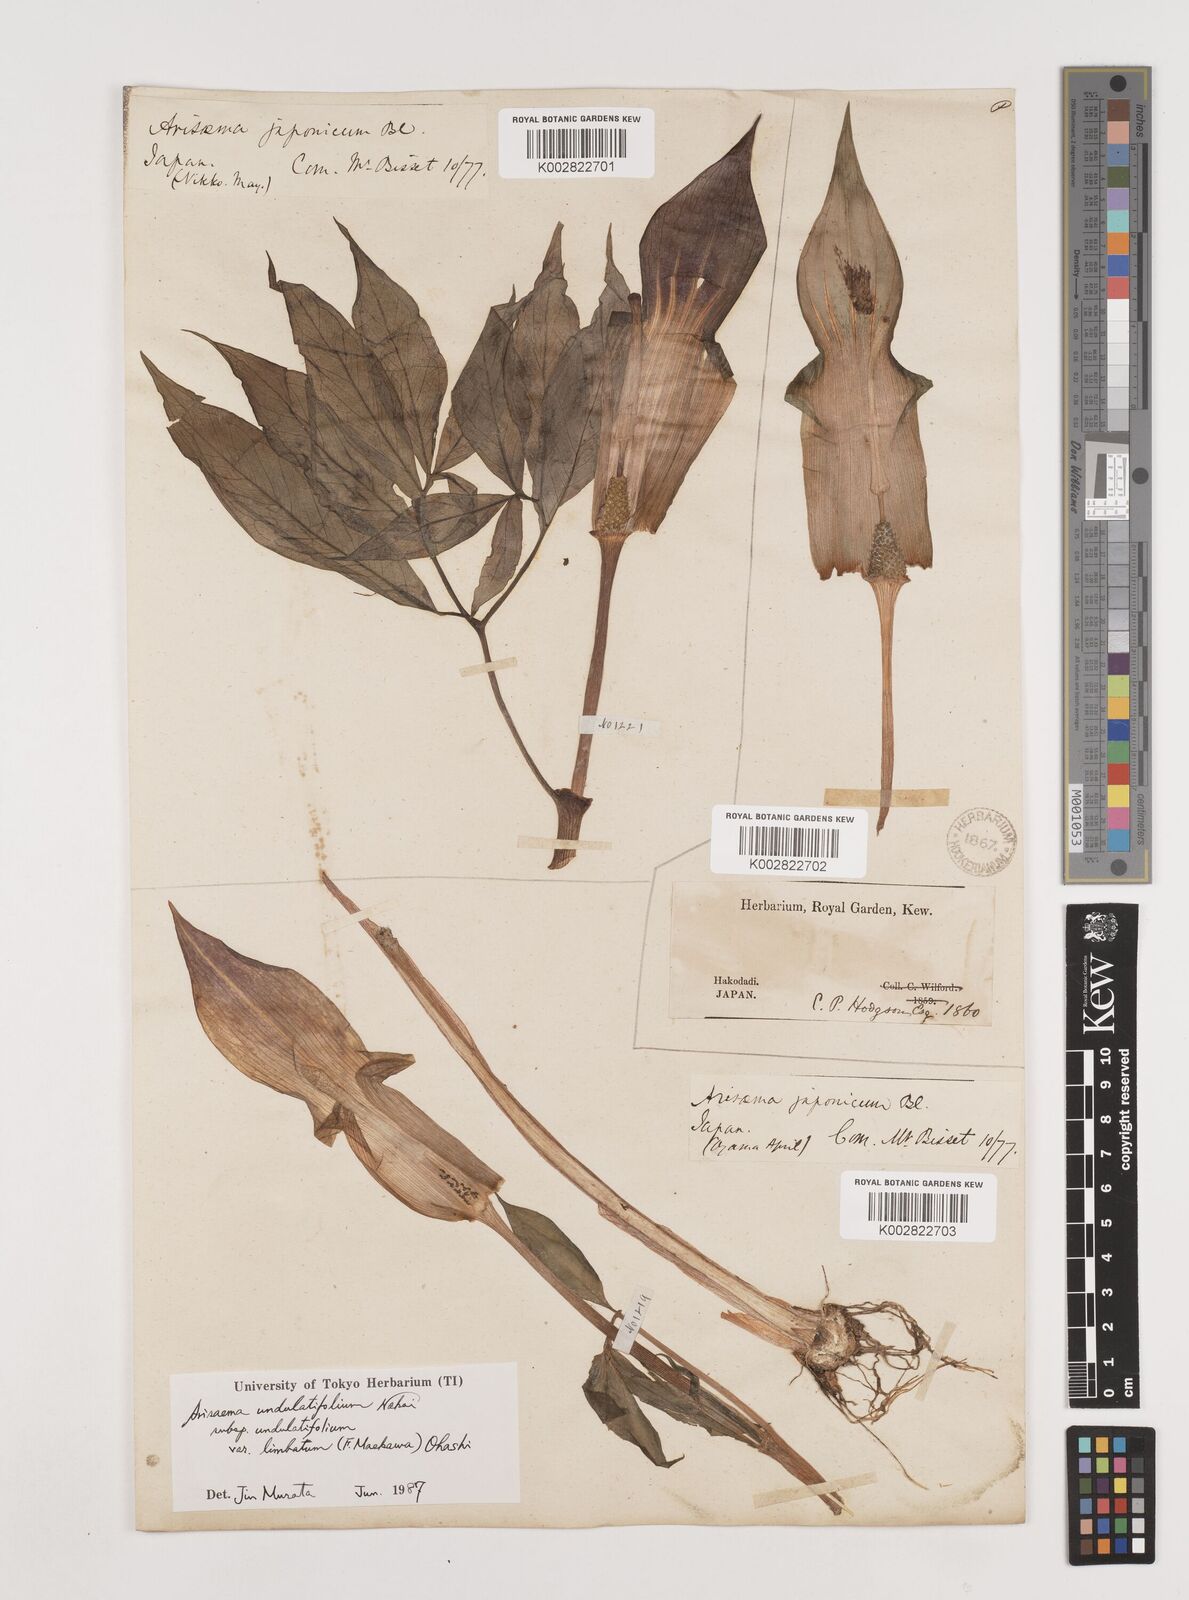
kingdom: Plantae
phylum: Tracheophyta
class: Liliopsida
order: Alismatales
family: Araceae
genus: Arisaema
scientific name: Arisaema undulatifolium
